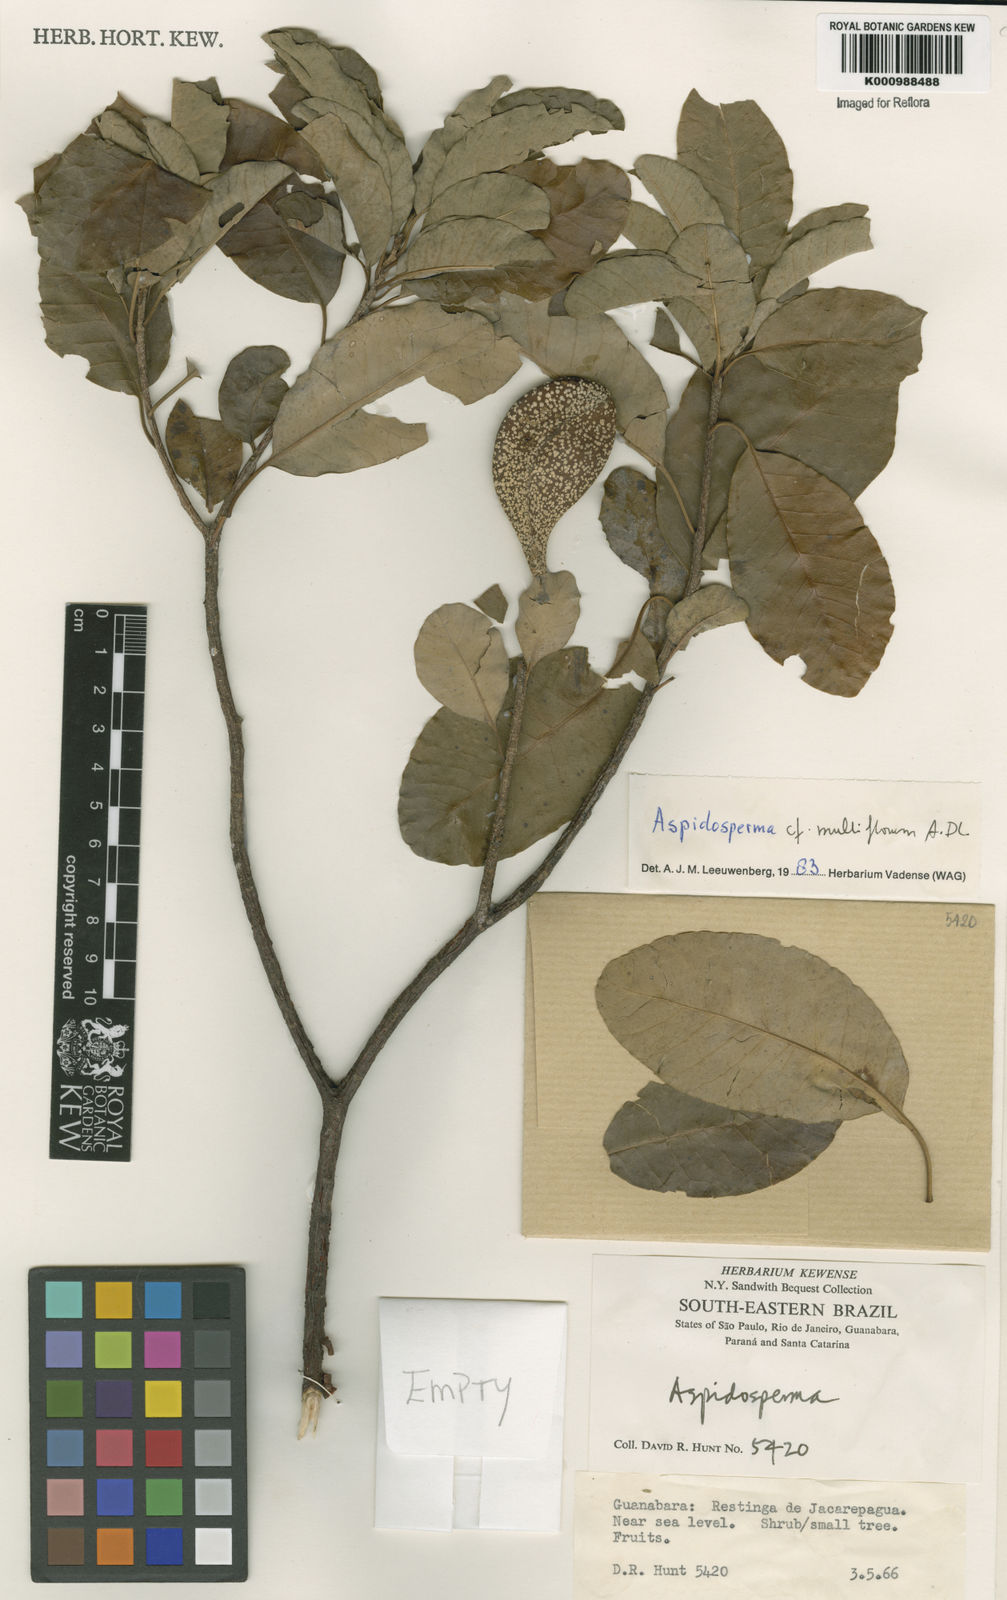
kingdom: Plantae
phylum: Tracheophyta
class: Magnoliopsida
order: Gentianales
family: Apocynaceae
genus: Aspidosperma
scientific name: Aspidosperma multiflorum
